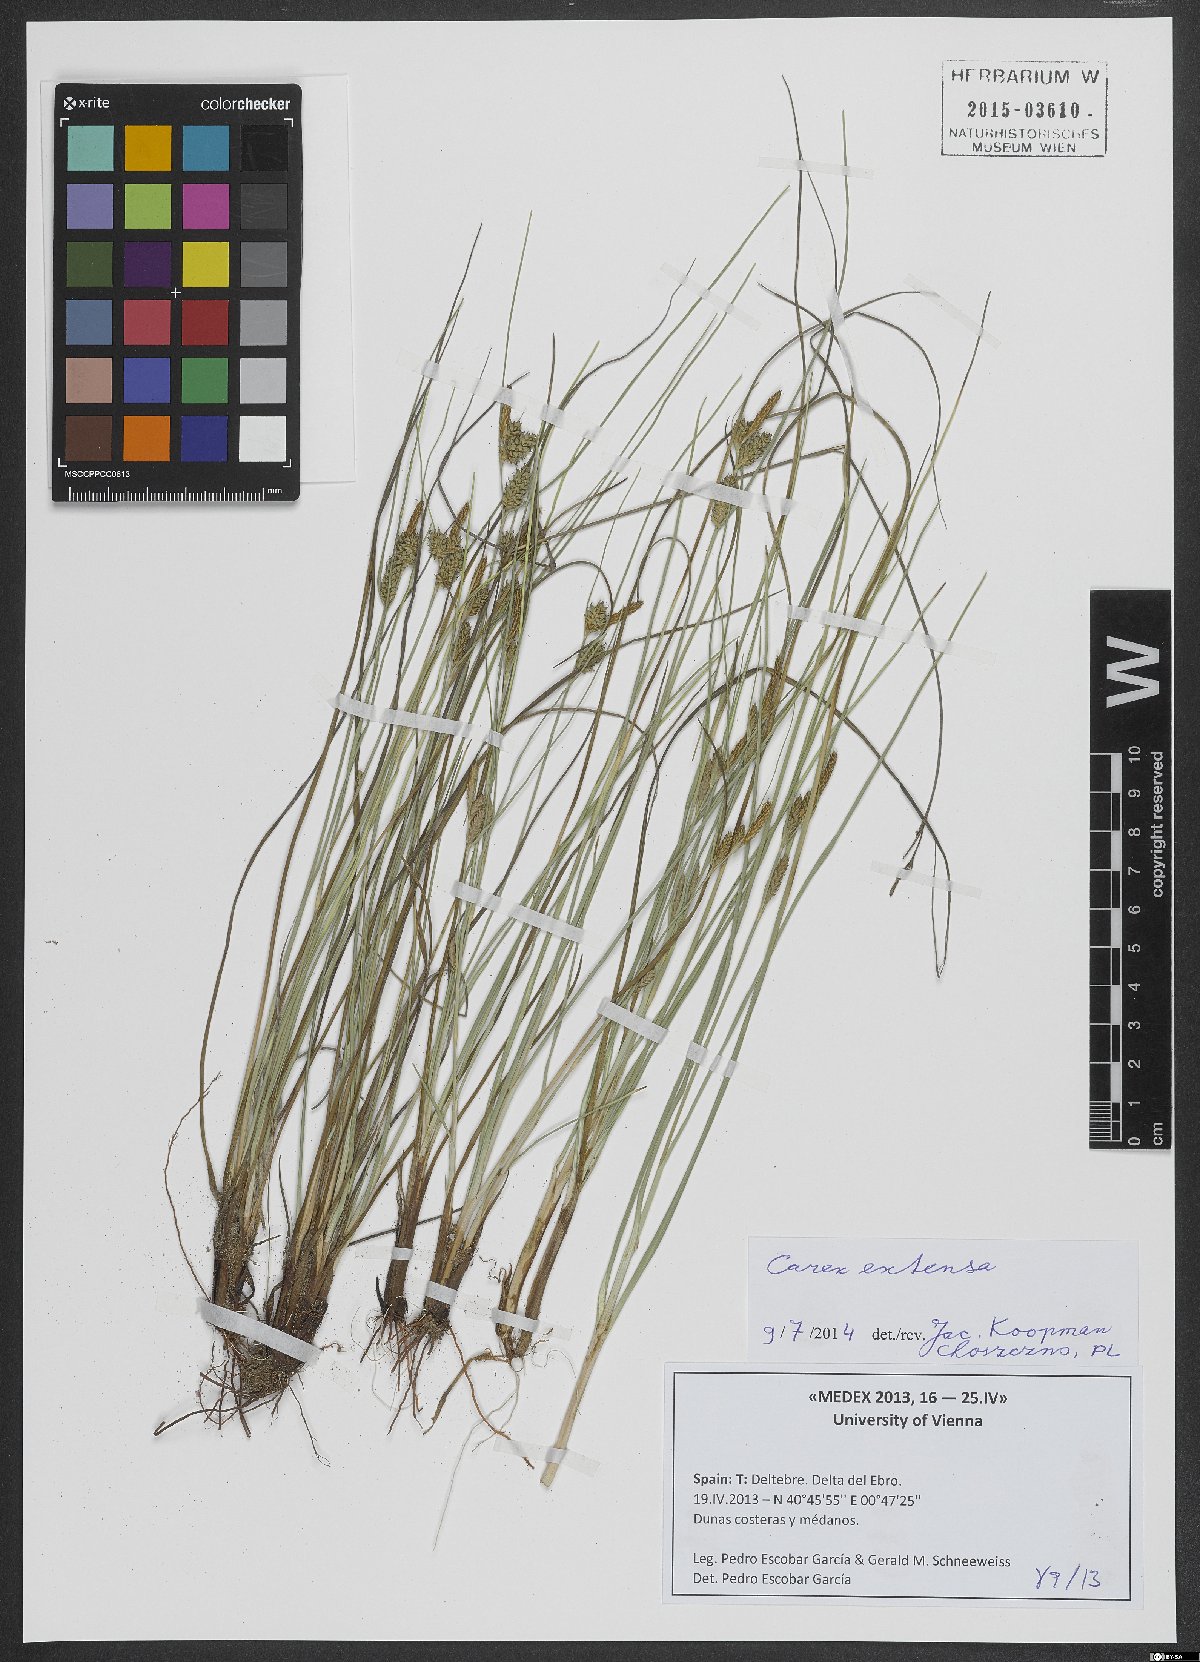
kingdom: Plantae
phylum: Tracheophyta
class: Liliopsida
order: Poales
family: Cyperaceae
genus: Carex
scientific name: Carex extensa
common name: Long-bracted sedge
